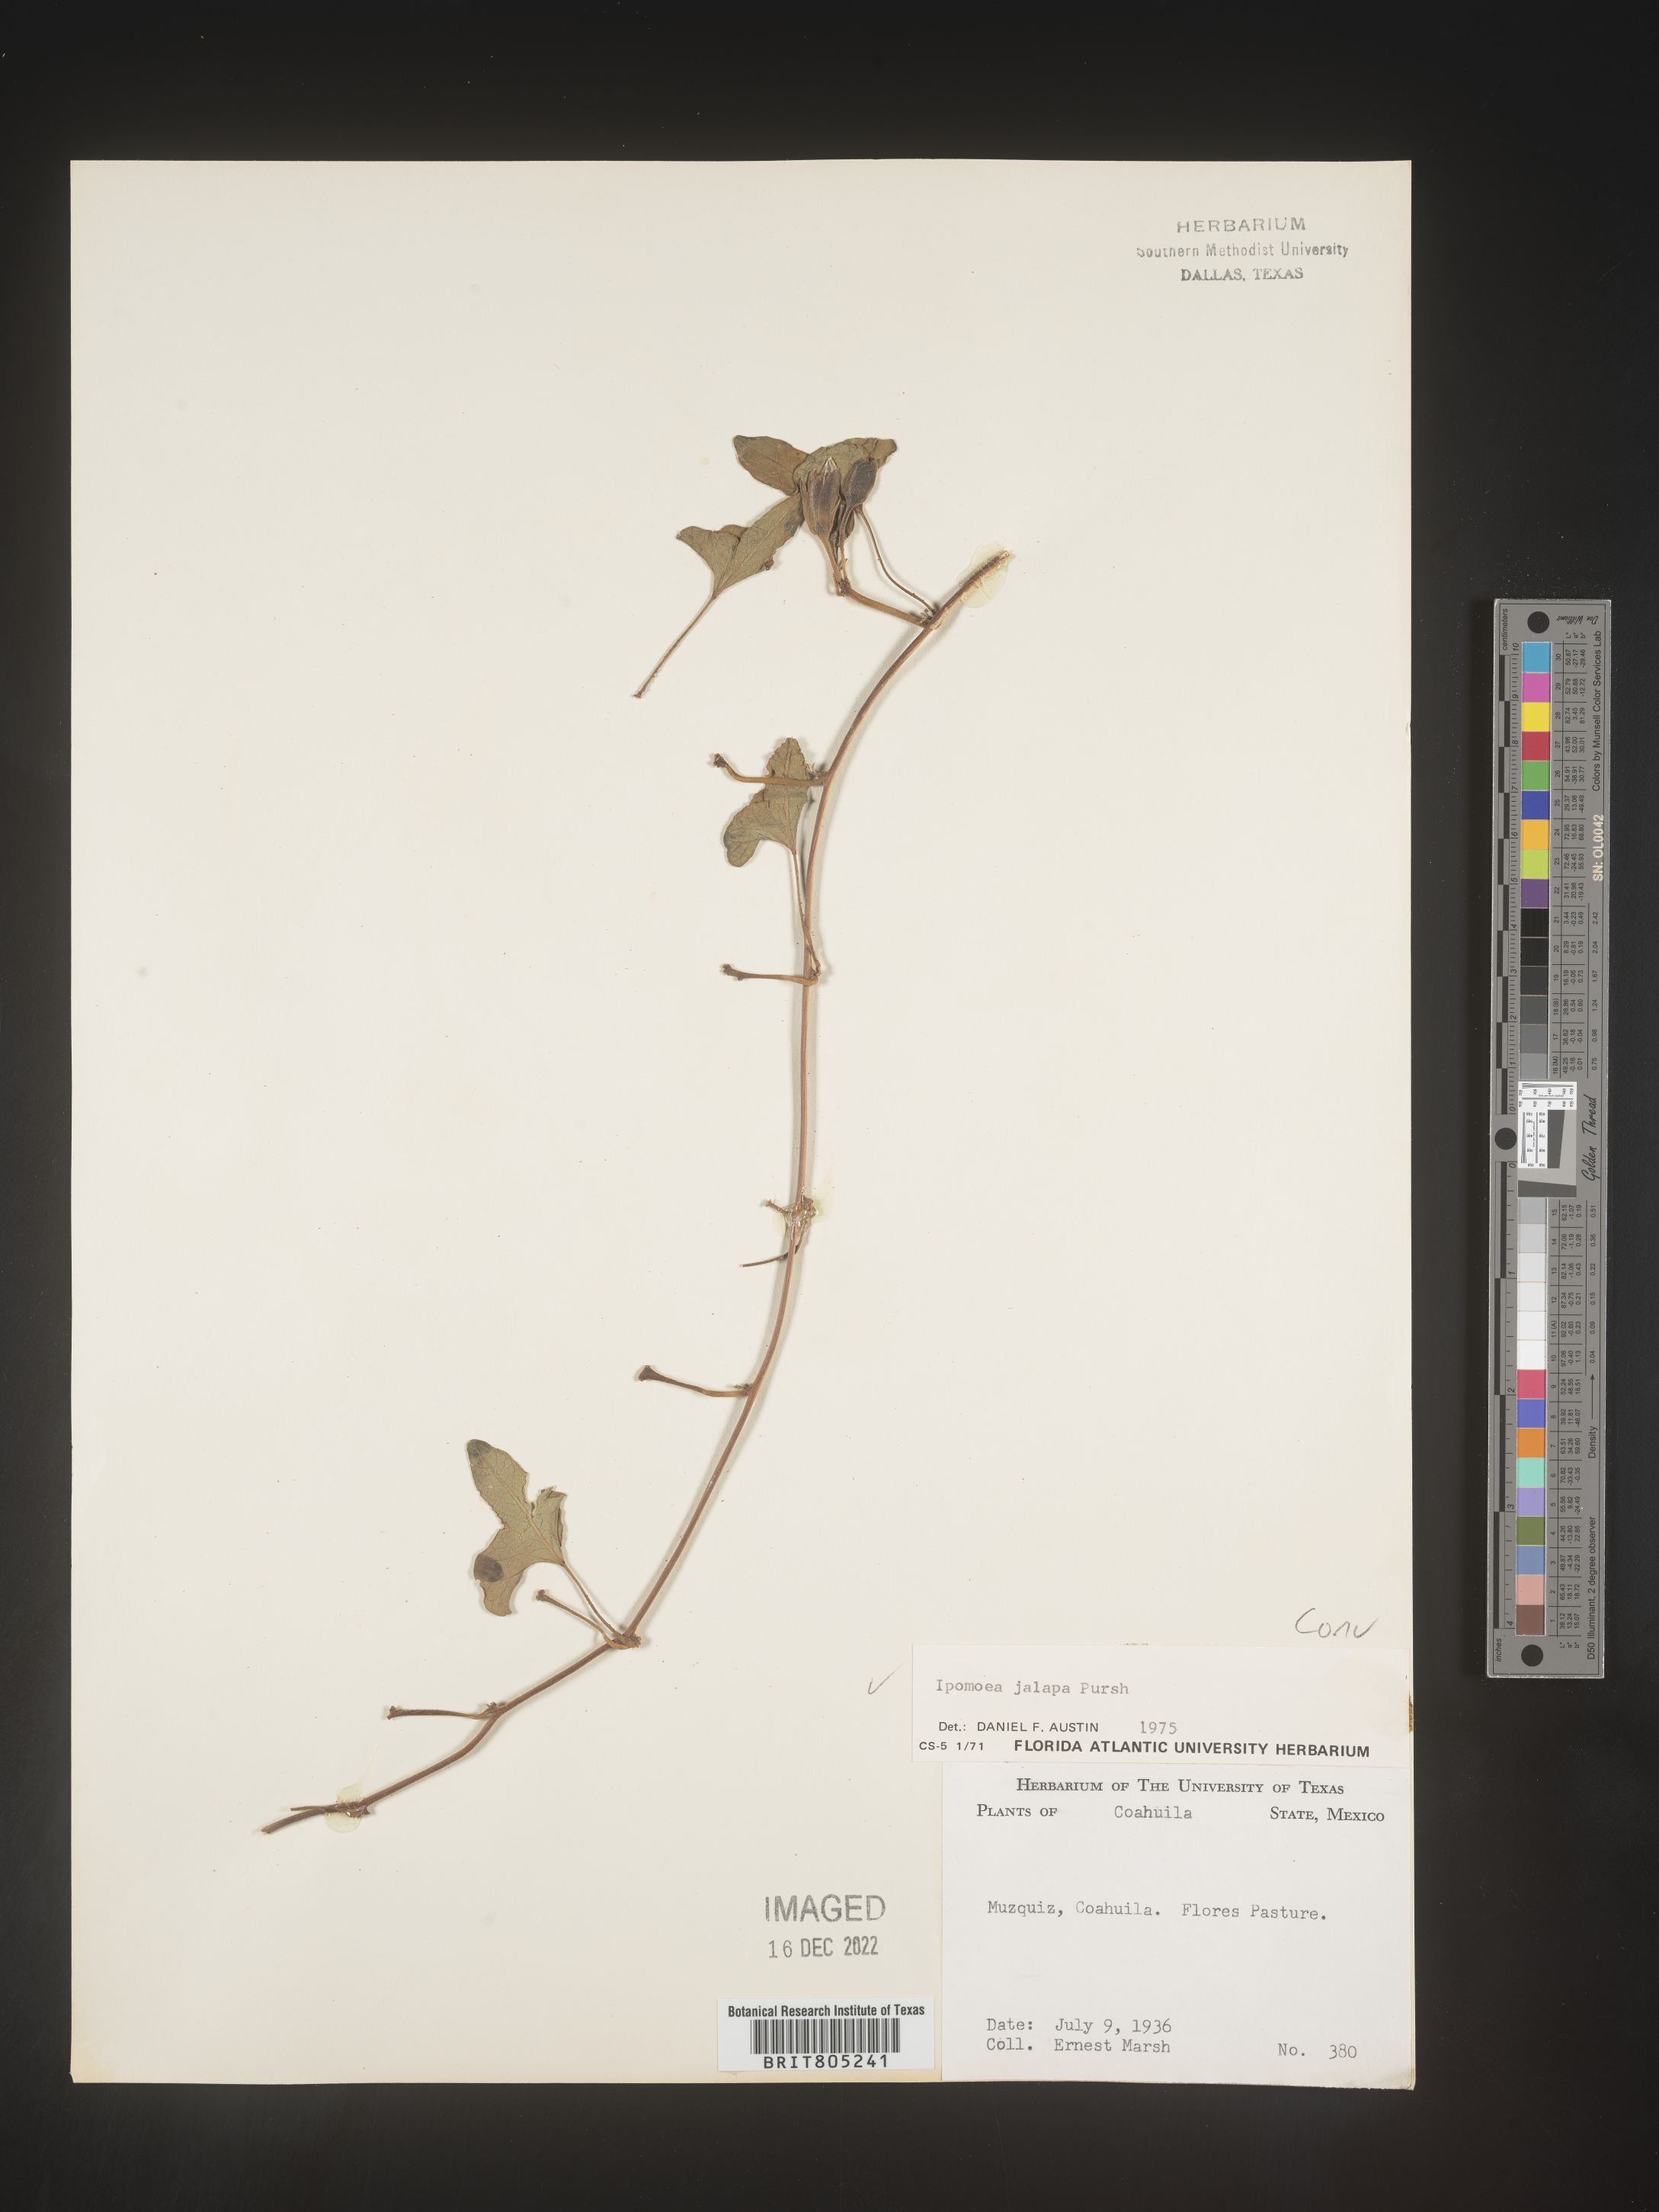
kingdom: Plantae
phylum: Tracheophyta
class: Magnoliopsida
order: Solanales
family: Convolvulaceae
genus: Ipomoea
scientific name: Ipomoea
